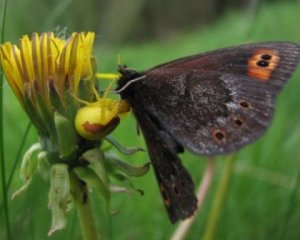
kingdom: Animalia
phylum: Arthropoda
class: Insecta
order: Lepidoptera
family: Nymphalidae
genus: Erebia
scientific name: Erebia epipsodea
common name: Common Alpine
